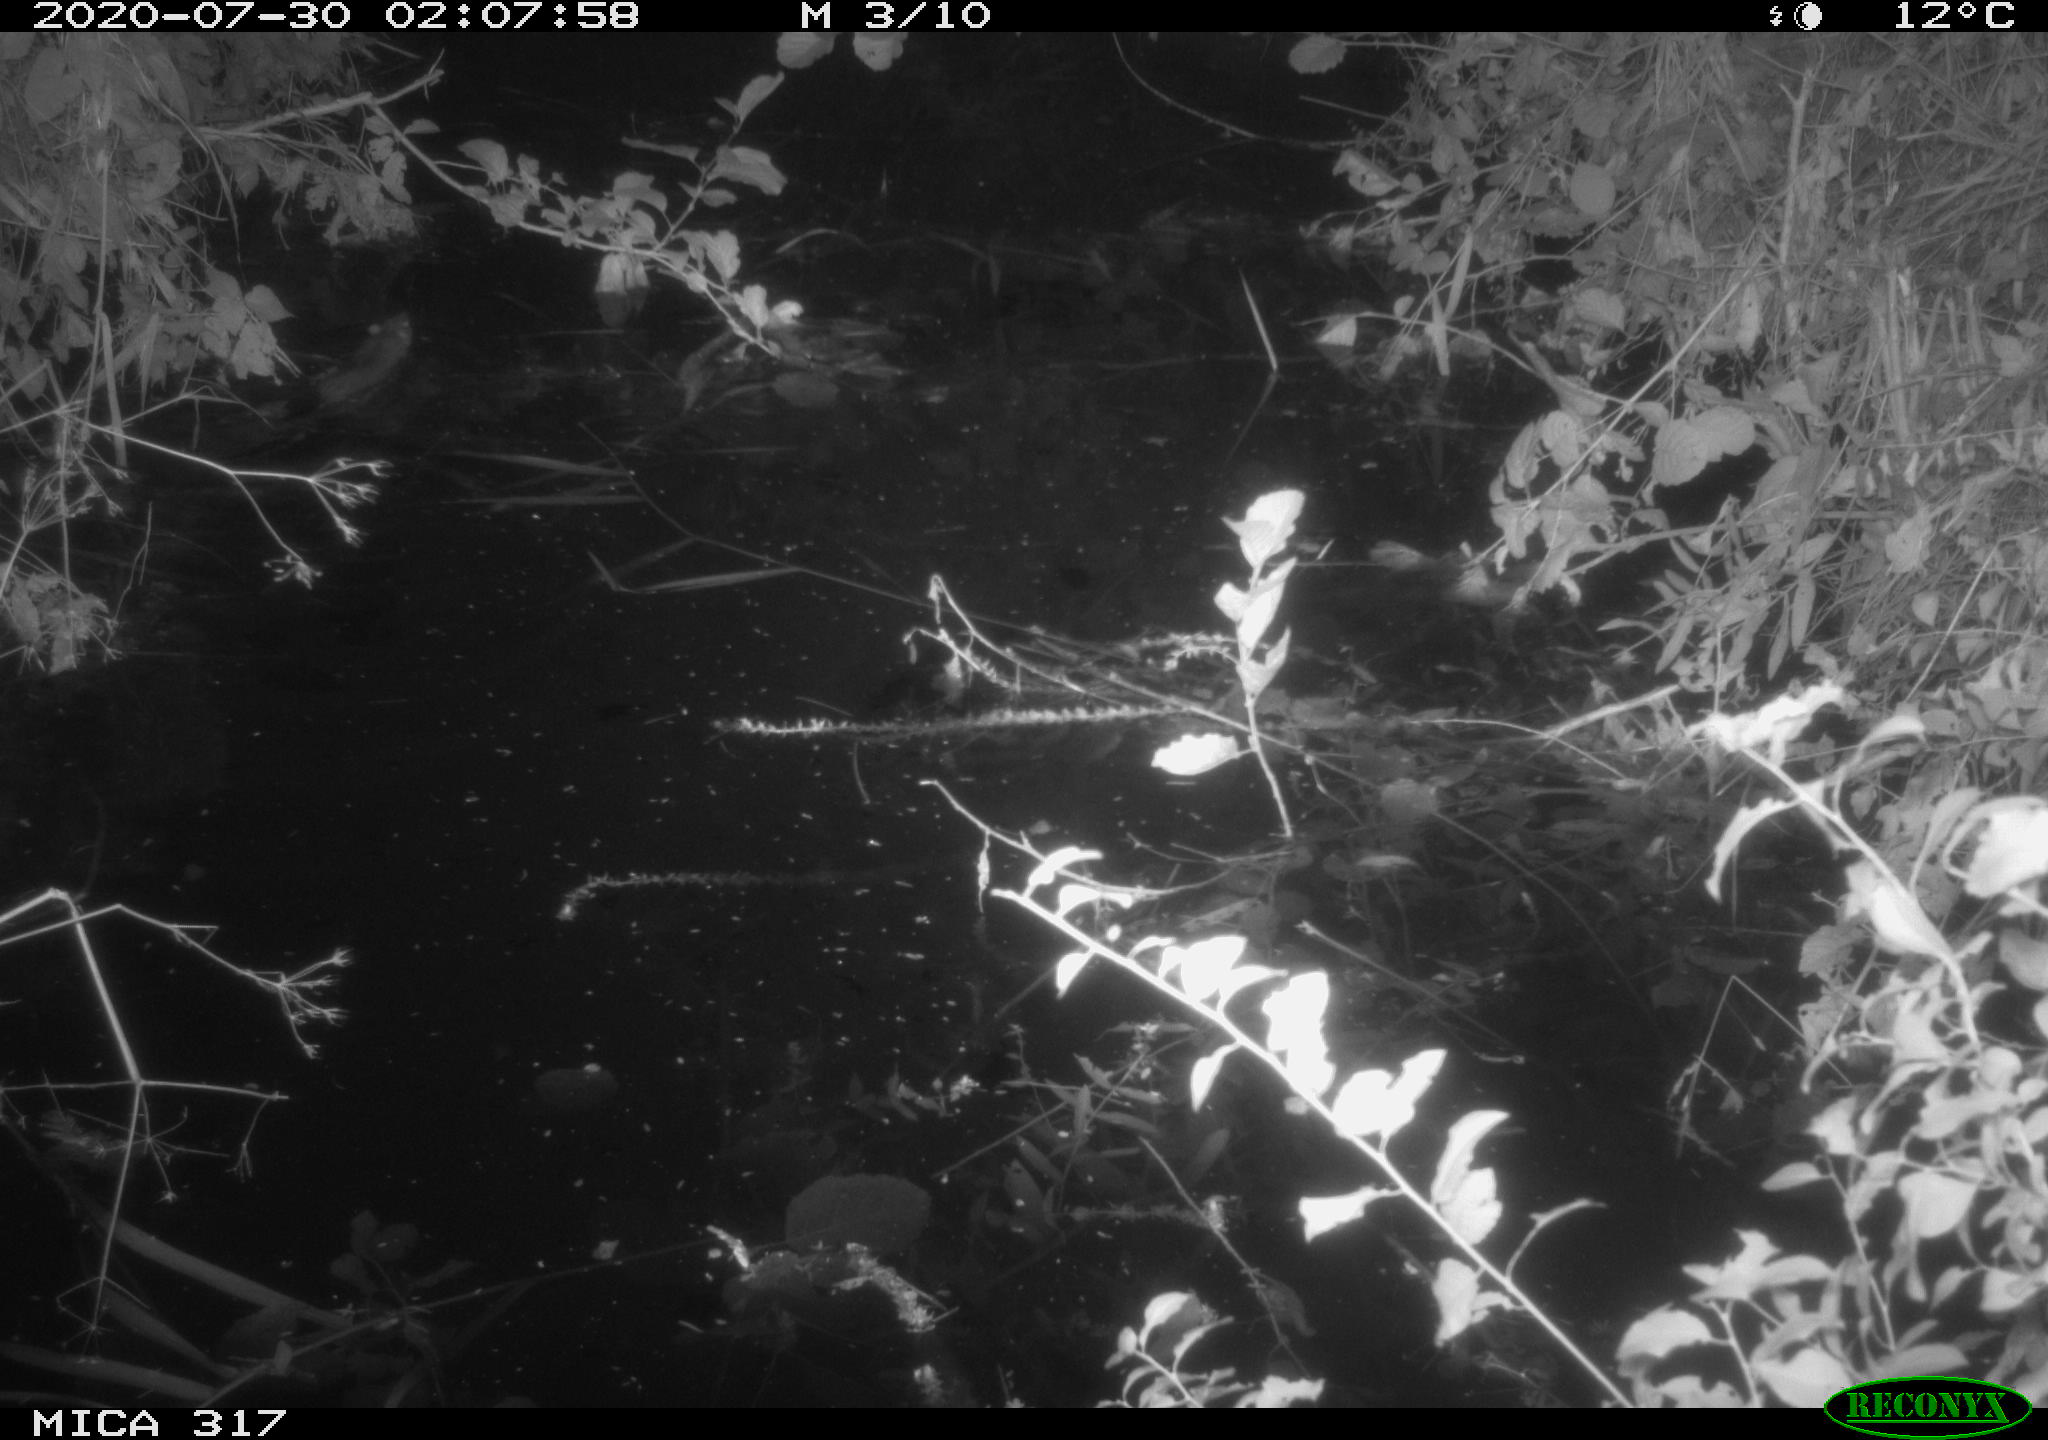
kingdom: Animalia
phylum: Chordata
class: Mammalia
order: Rodentia
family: Muridae
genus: Rattus
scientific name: Rattus norvegicus
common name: Brown rat
